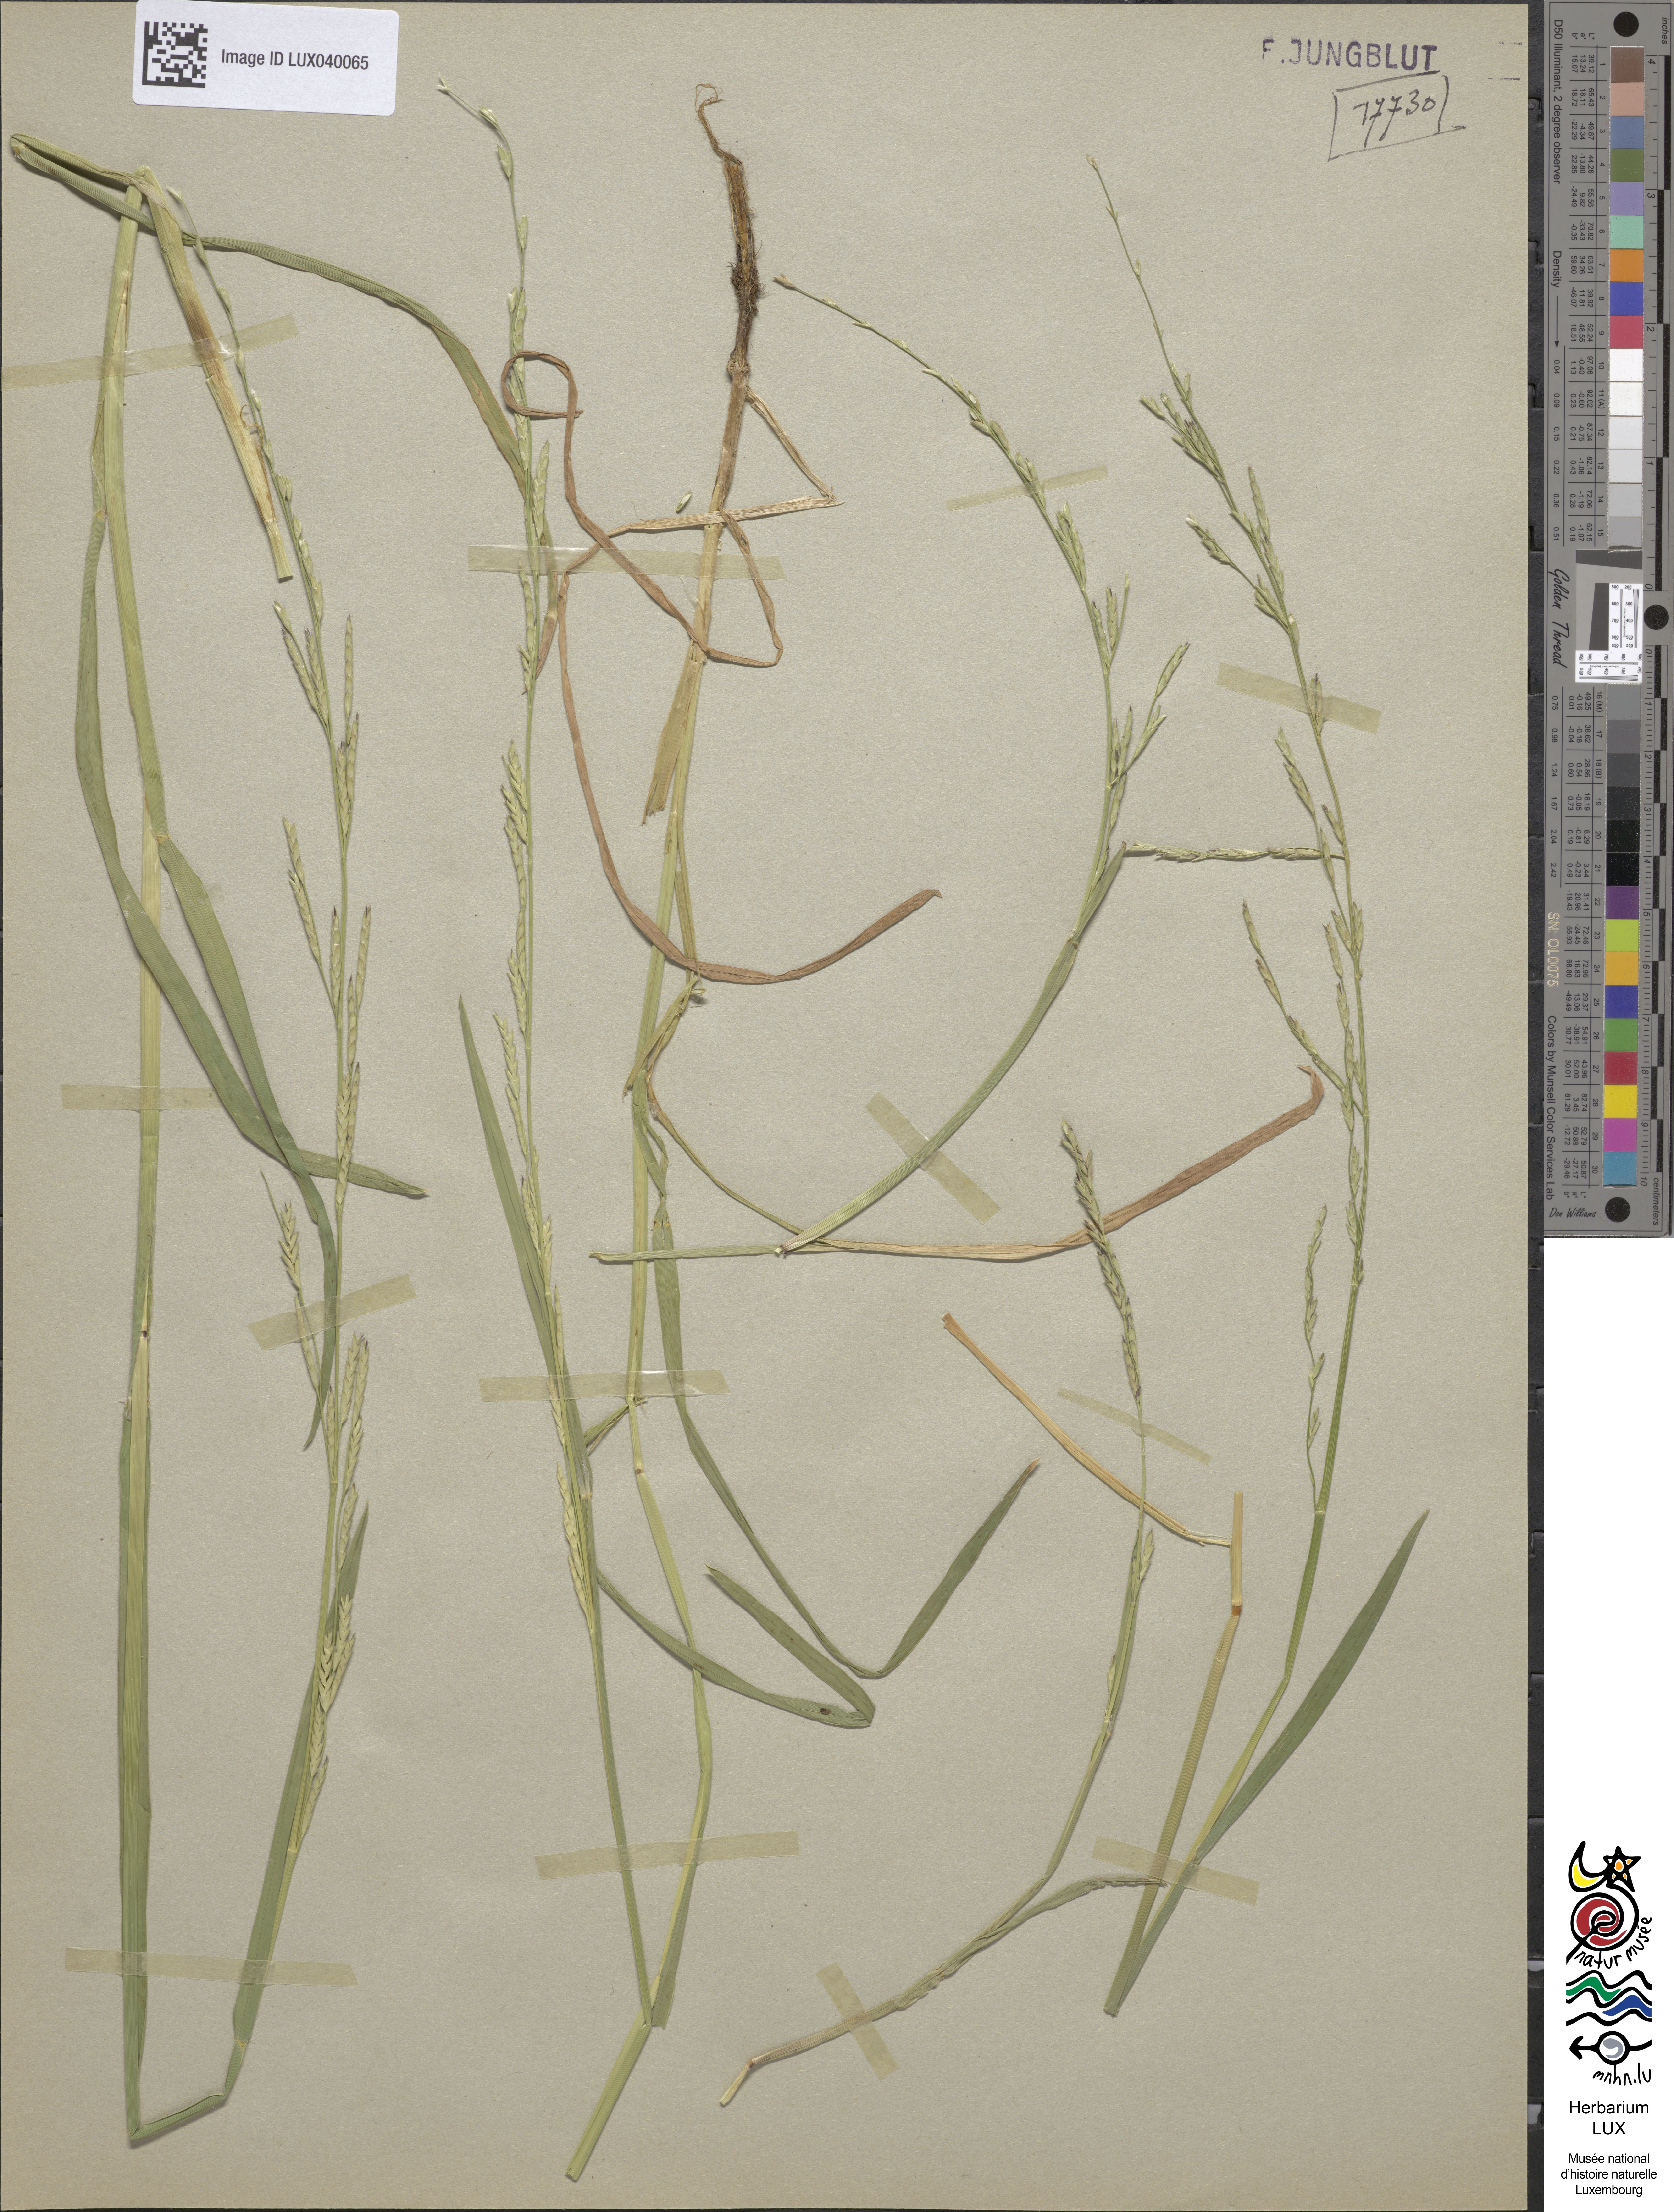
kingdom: Plantae
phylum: Tracheophyta
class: Liliopsida
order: Poales
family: Poaceae
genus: Glyceria
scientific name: Glyceria declinata
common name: Small sweet-grass
